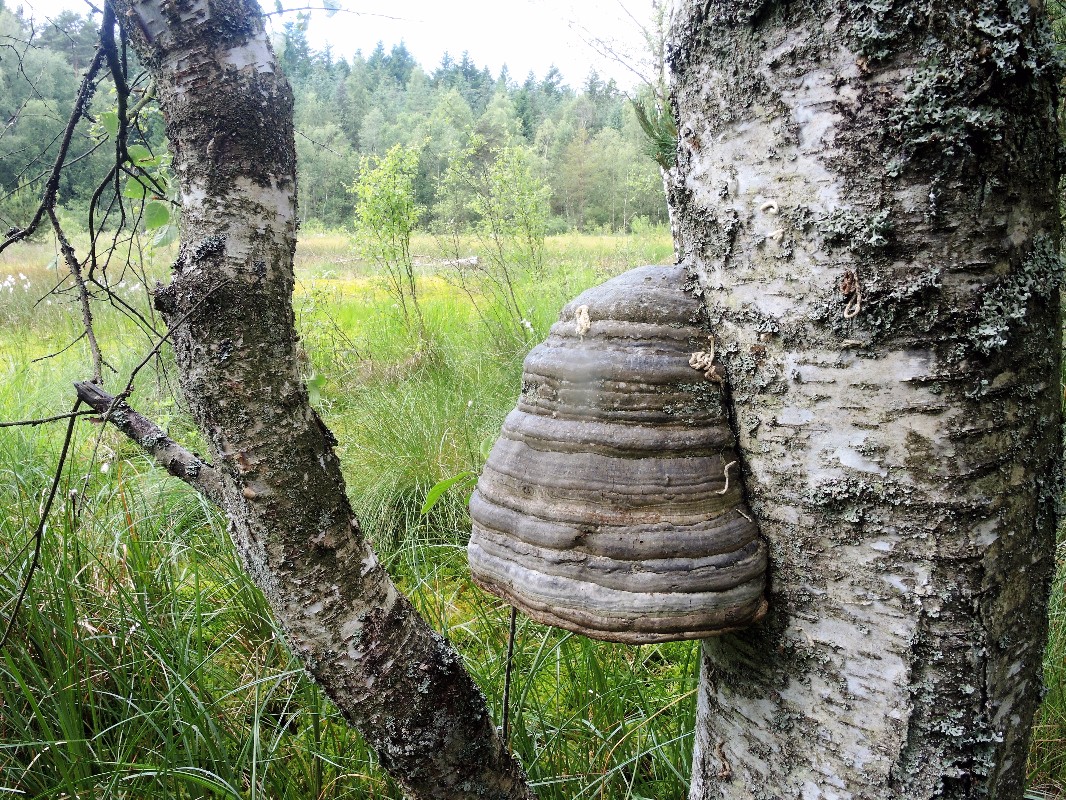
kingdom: Fungi
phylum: Basidiomycota
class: Agaricomycetes
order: Polyporales
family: Polyporaceae
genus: Fomes
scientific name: Fomes fomentarius
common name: tøndersvamp
